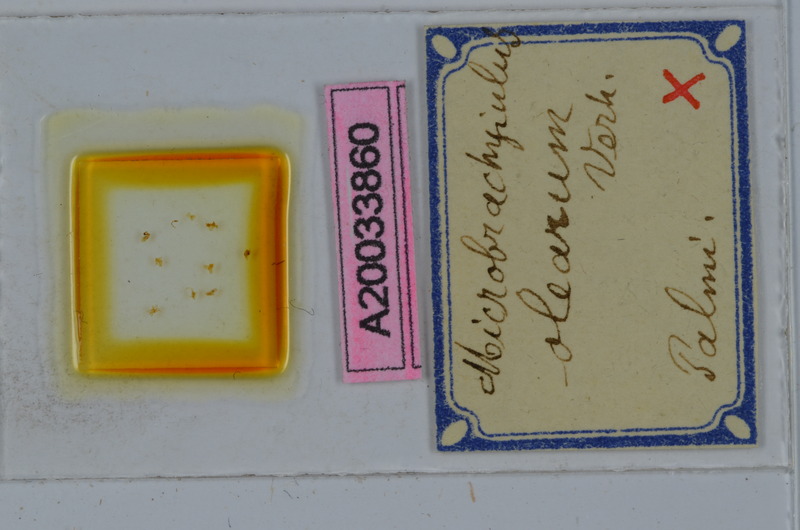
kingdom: Animalia
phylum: Arthropoda
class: Diplopoda
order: Julida
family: Julidae
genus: Microbrachyiulus
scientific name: Microbrachyiulus olearum
